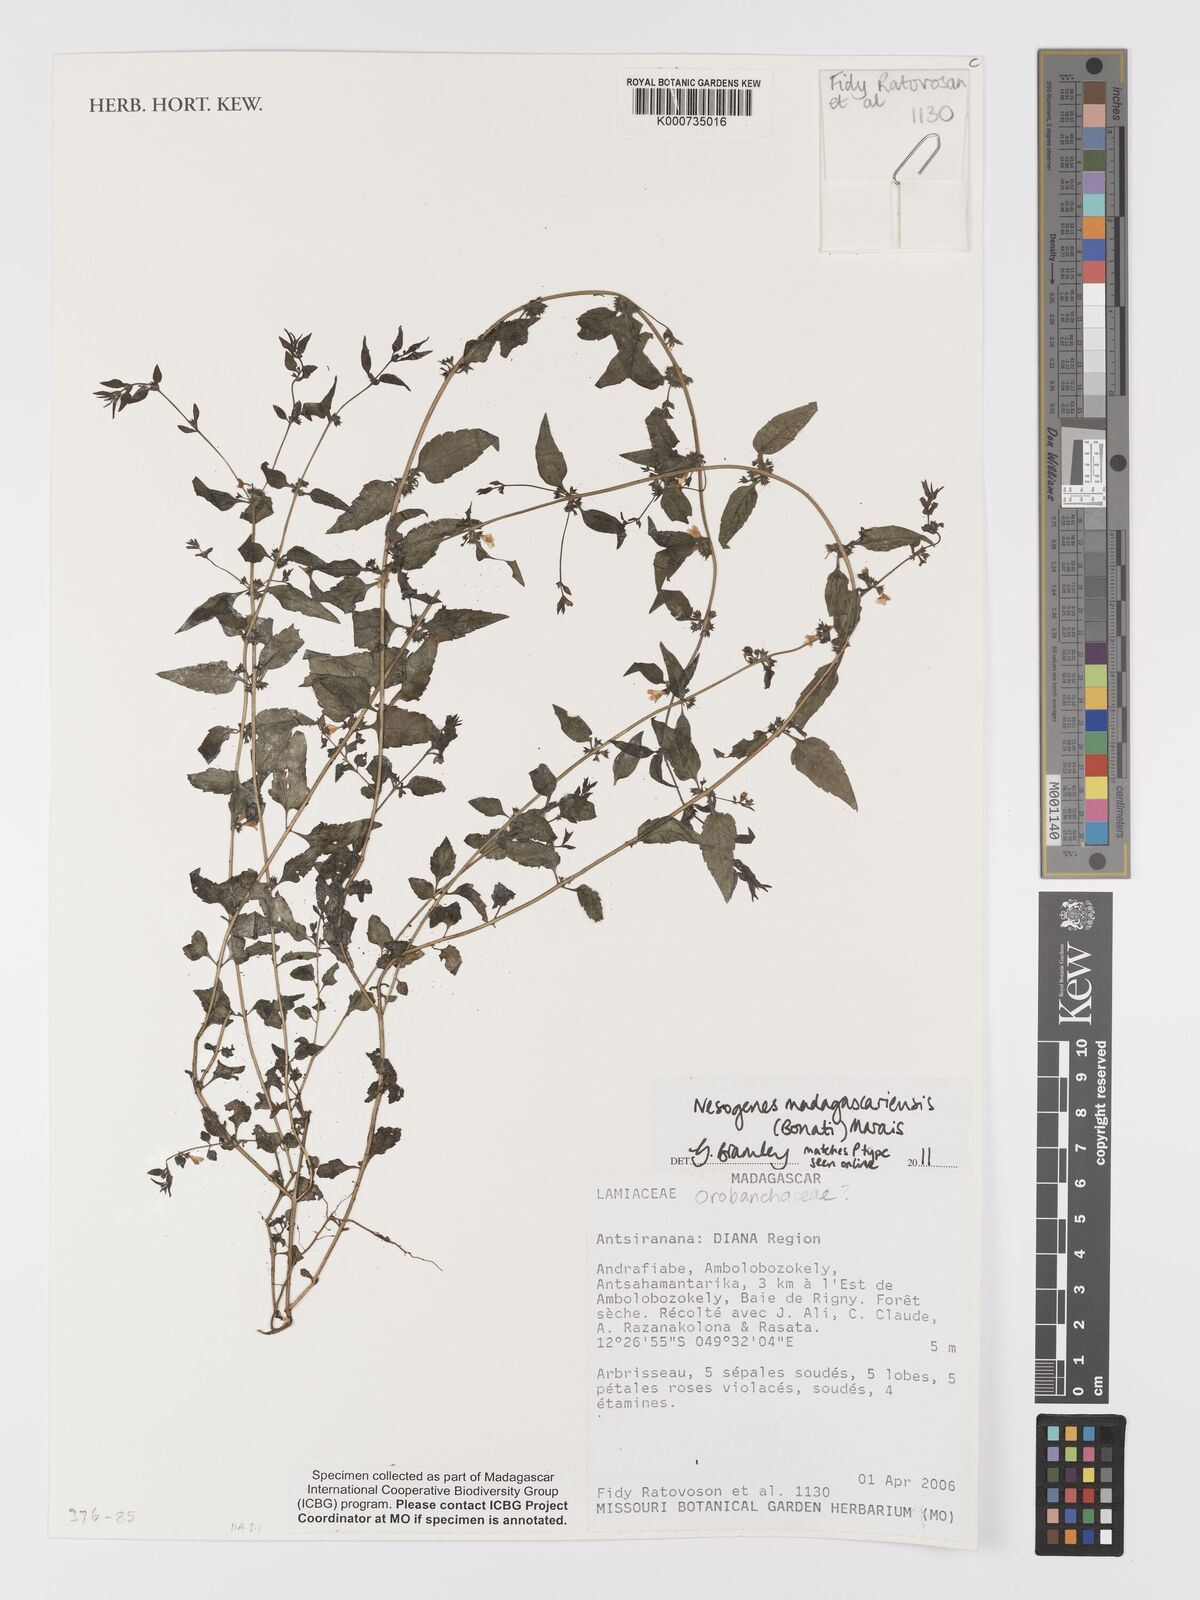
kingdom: Plantae
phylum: Tracheophyta
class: Magnoliopsida
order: Lamiales
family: Orobanchaceae
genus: Nesogenes
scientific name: Nesogenes madagascariensis
